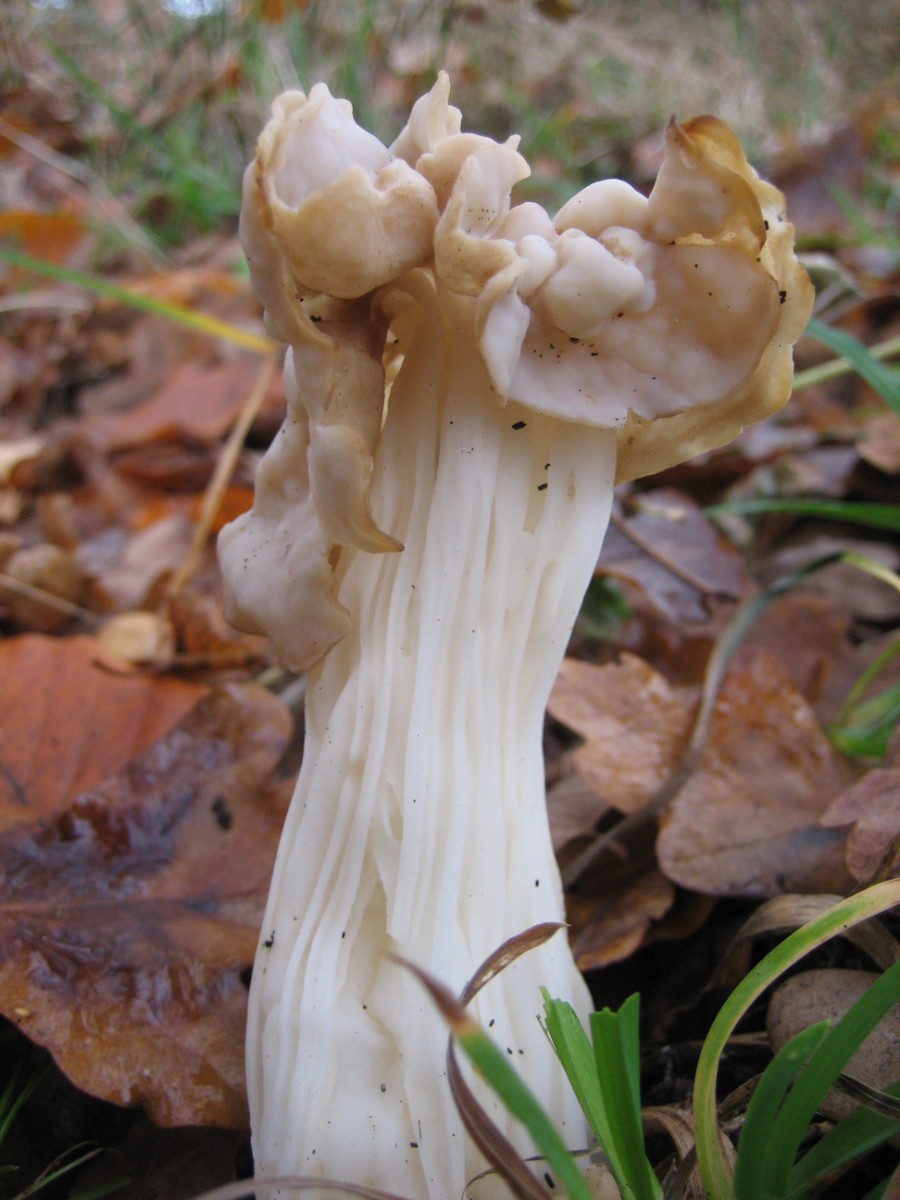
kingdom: Fungi
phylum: Ascomycota
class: Pezizomycetes
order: Pezizales
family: Helvellaceae
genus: Helvella
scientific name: Helvella crispa
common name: kruset foldhat
